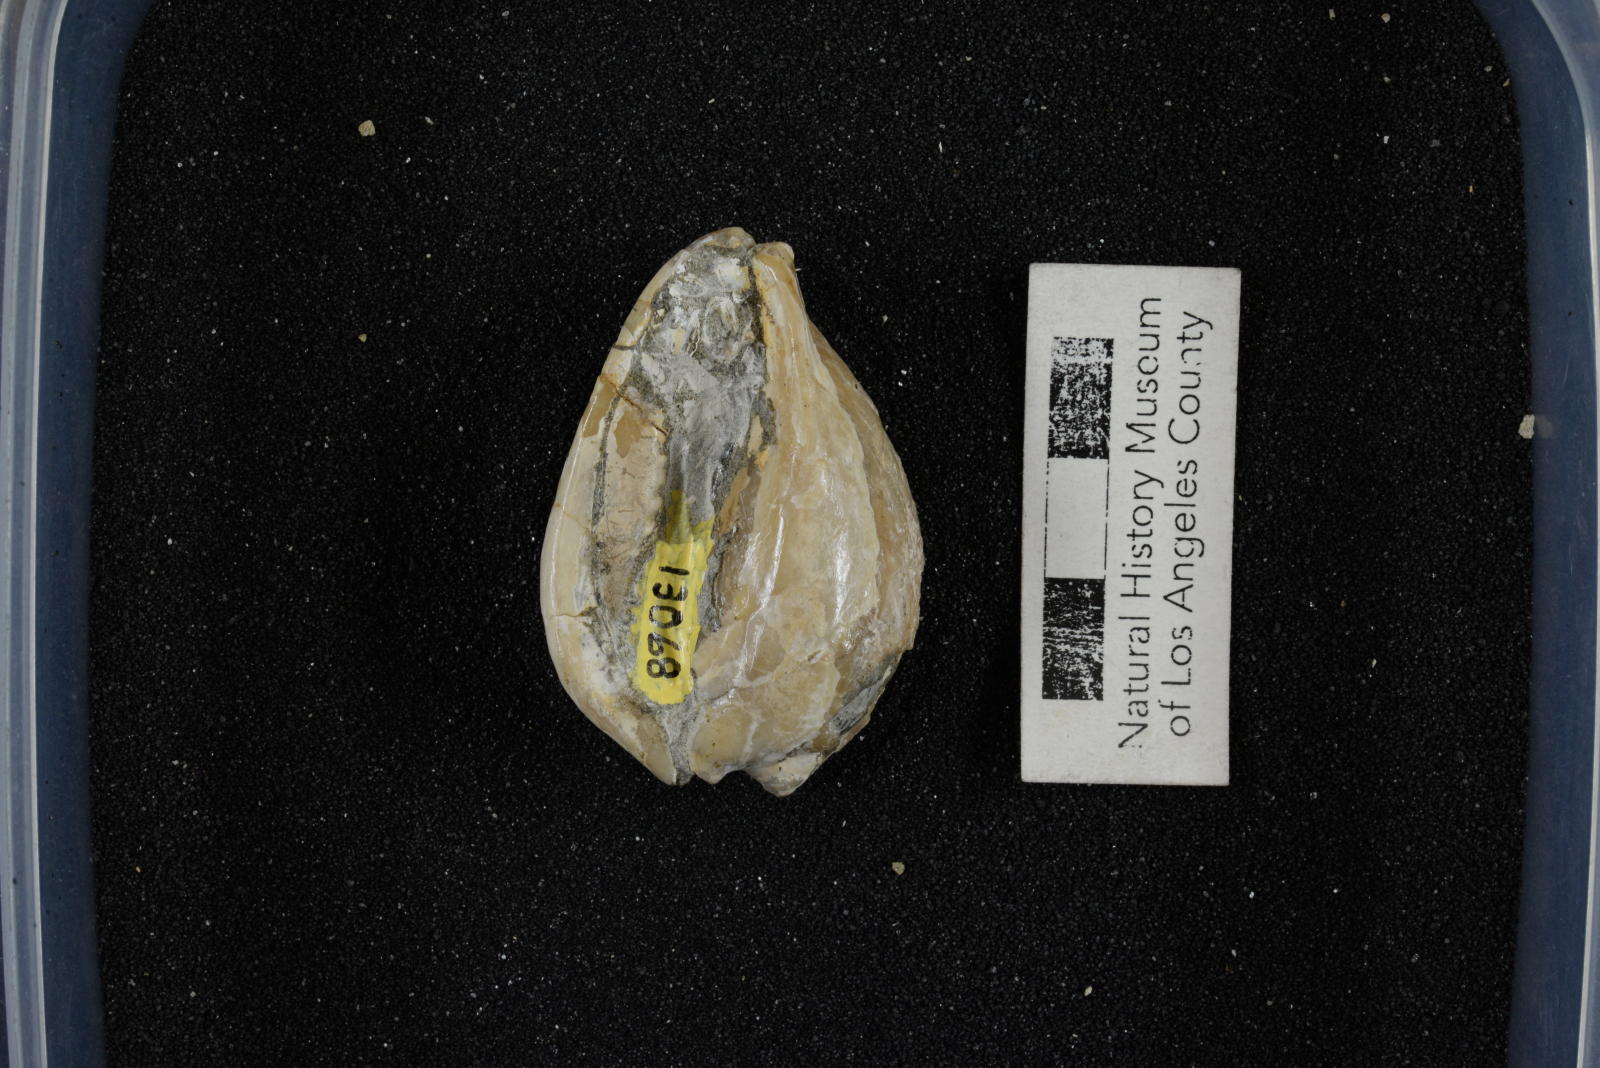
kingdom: Animalia
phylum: Mollusca
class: Gastropoda
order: Littorinimorpha
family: Cypraeidae
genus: Protocypraea
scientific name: Protocypraea
